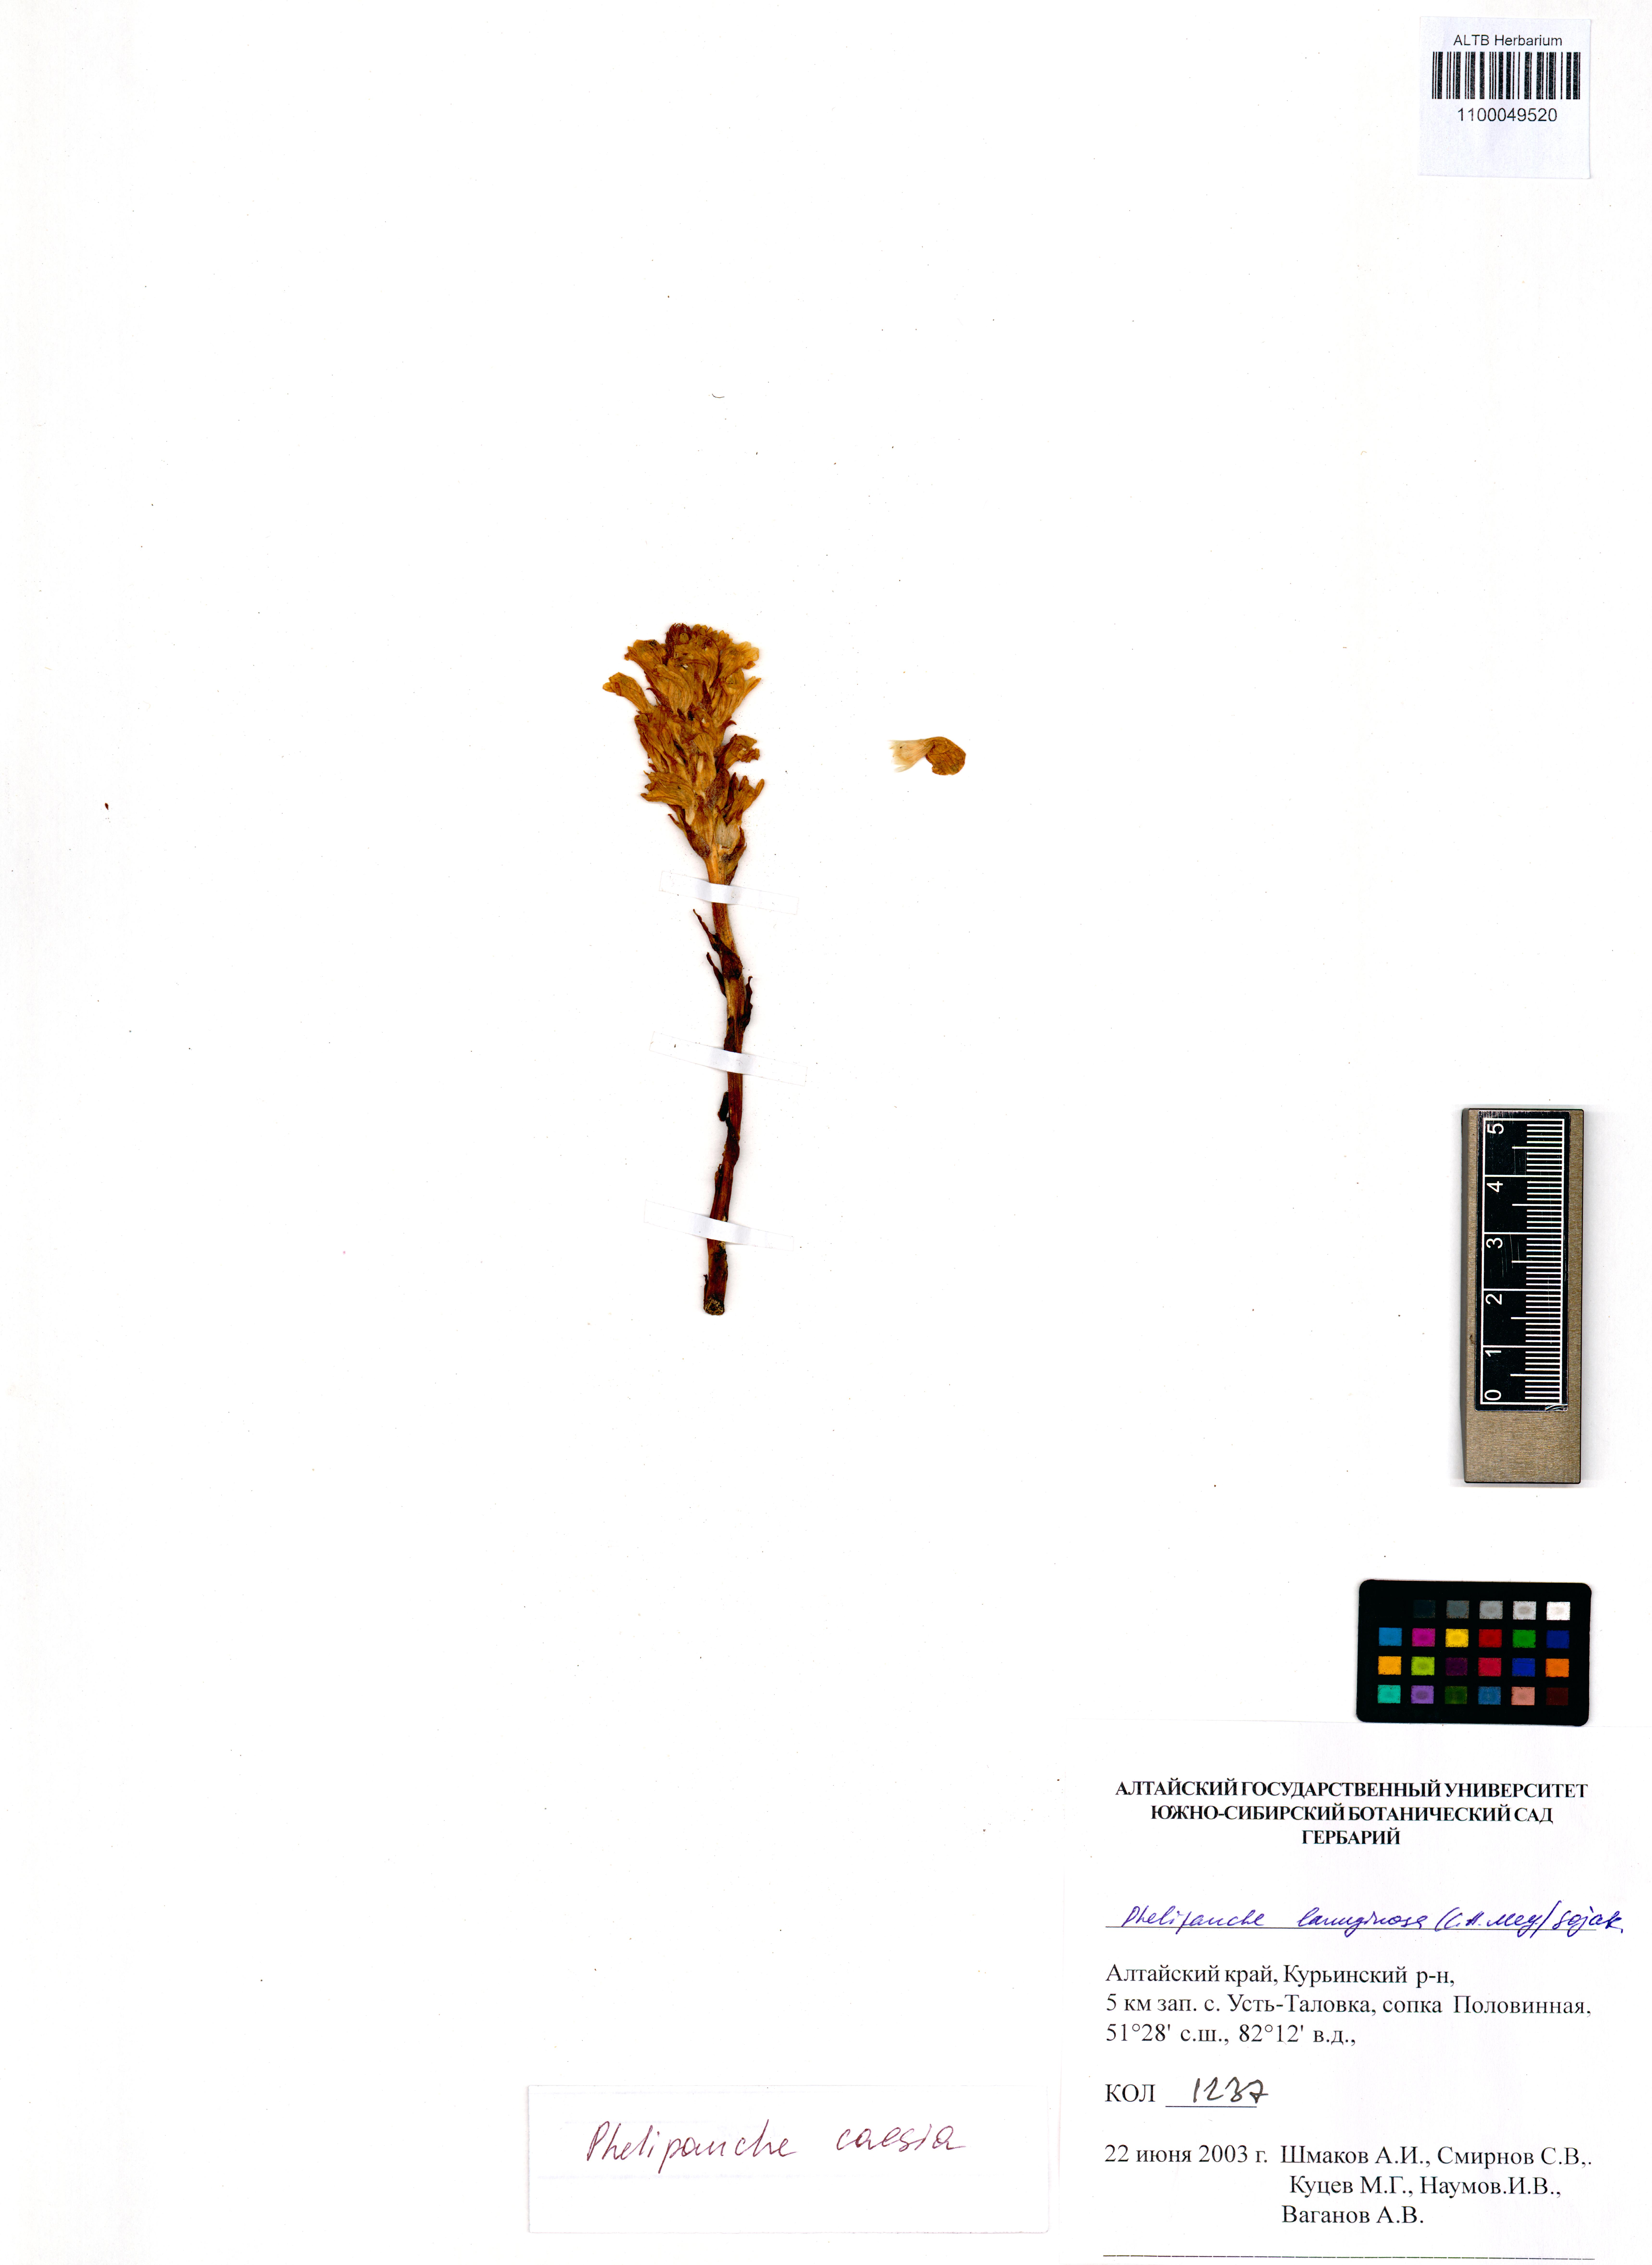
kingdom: Plantae
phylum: Tracheophyta
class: Magnoliopsida
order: Lamiales
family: Orobanchaceae
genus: Phelipanche
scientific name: Phelipanche caesia
